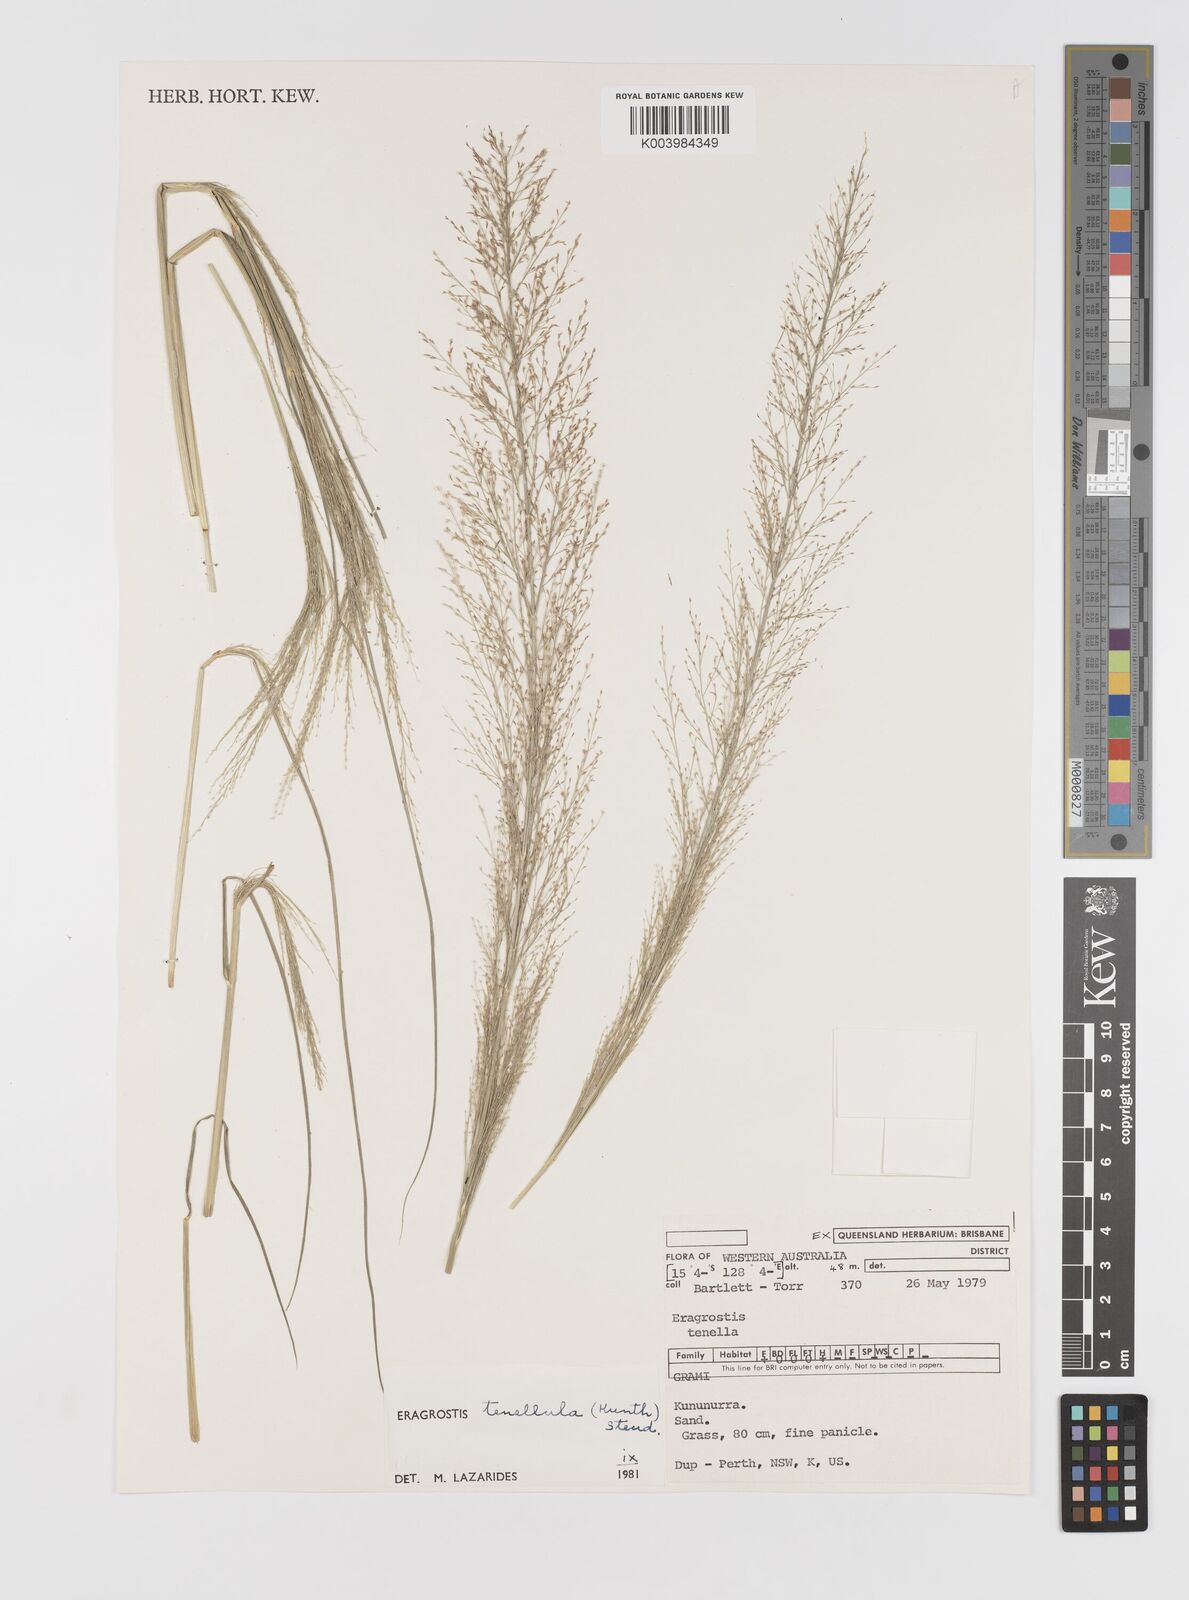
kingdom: Plantae
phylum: Tracheophyta
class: Liliopsida
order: Poales
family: Poaceae
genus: Eragrostis
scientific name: Eragrostis tenellula
